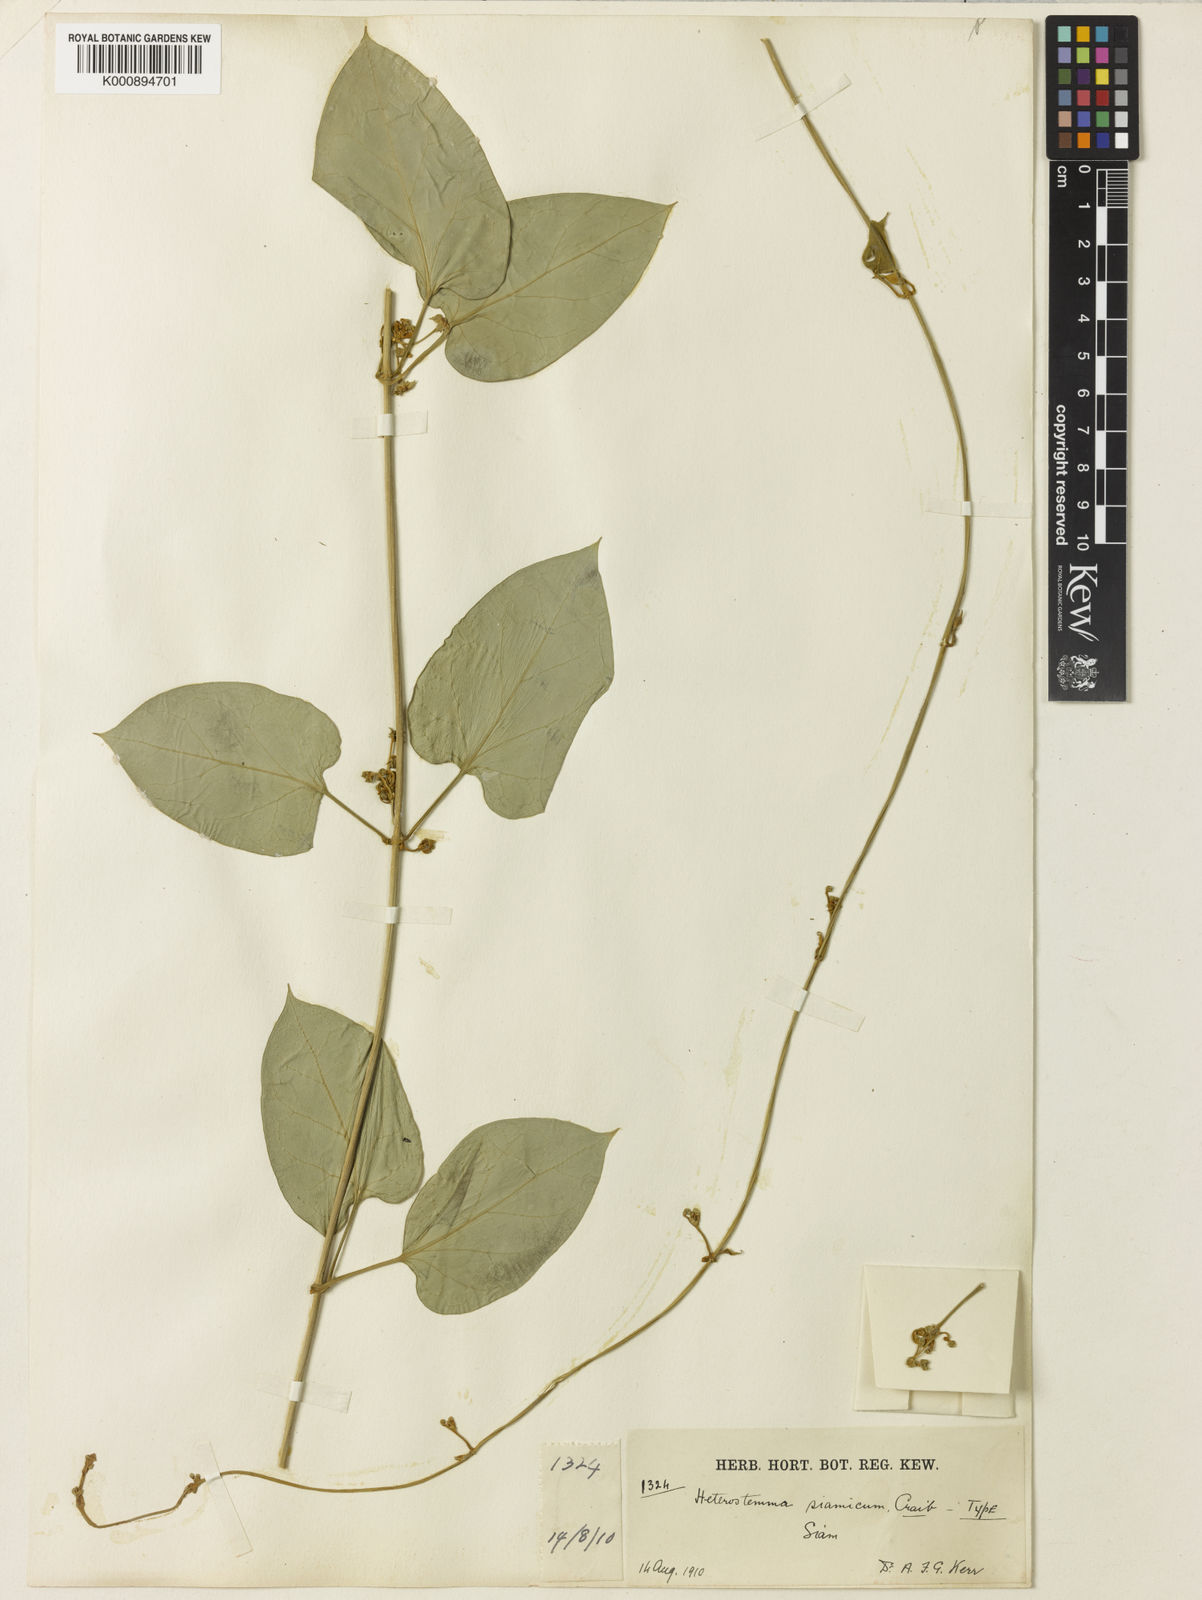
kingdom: Plantae
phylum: Tracheophyta
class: Magnoliopsida
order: Gentianales
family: Apocynaceae
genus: Heterostemma
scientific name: Heterostemma siamicum
